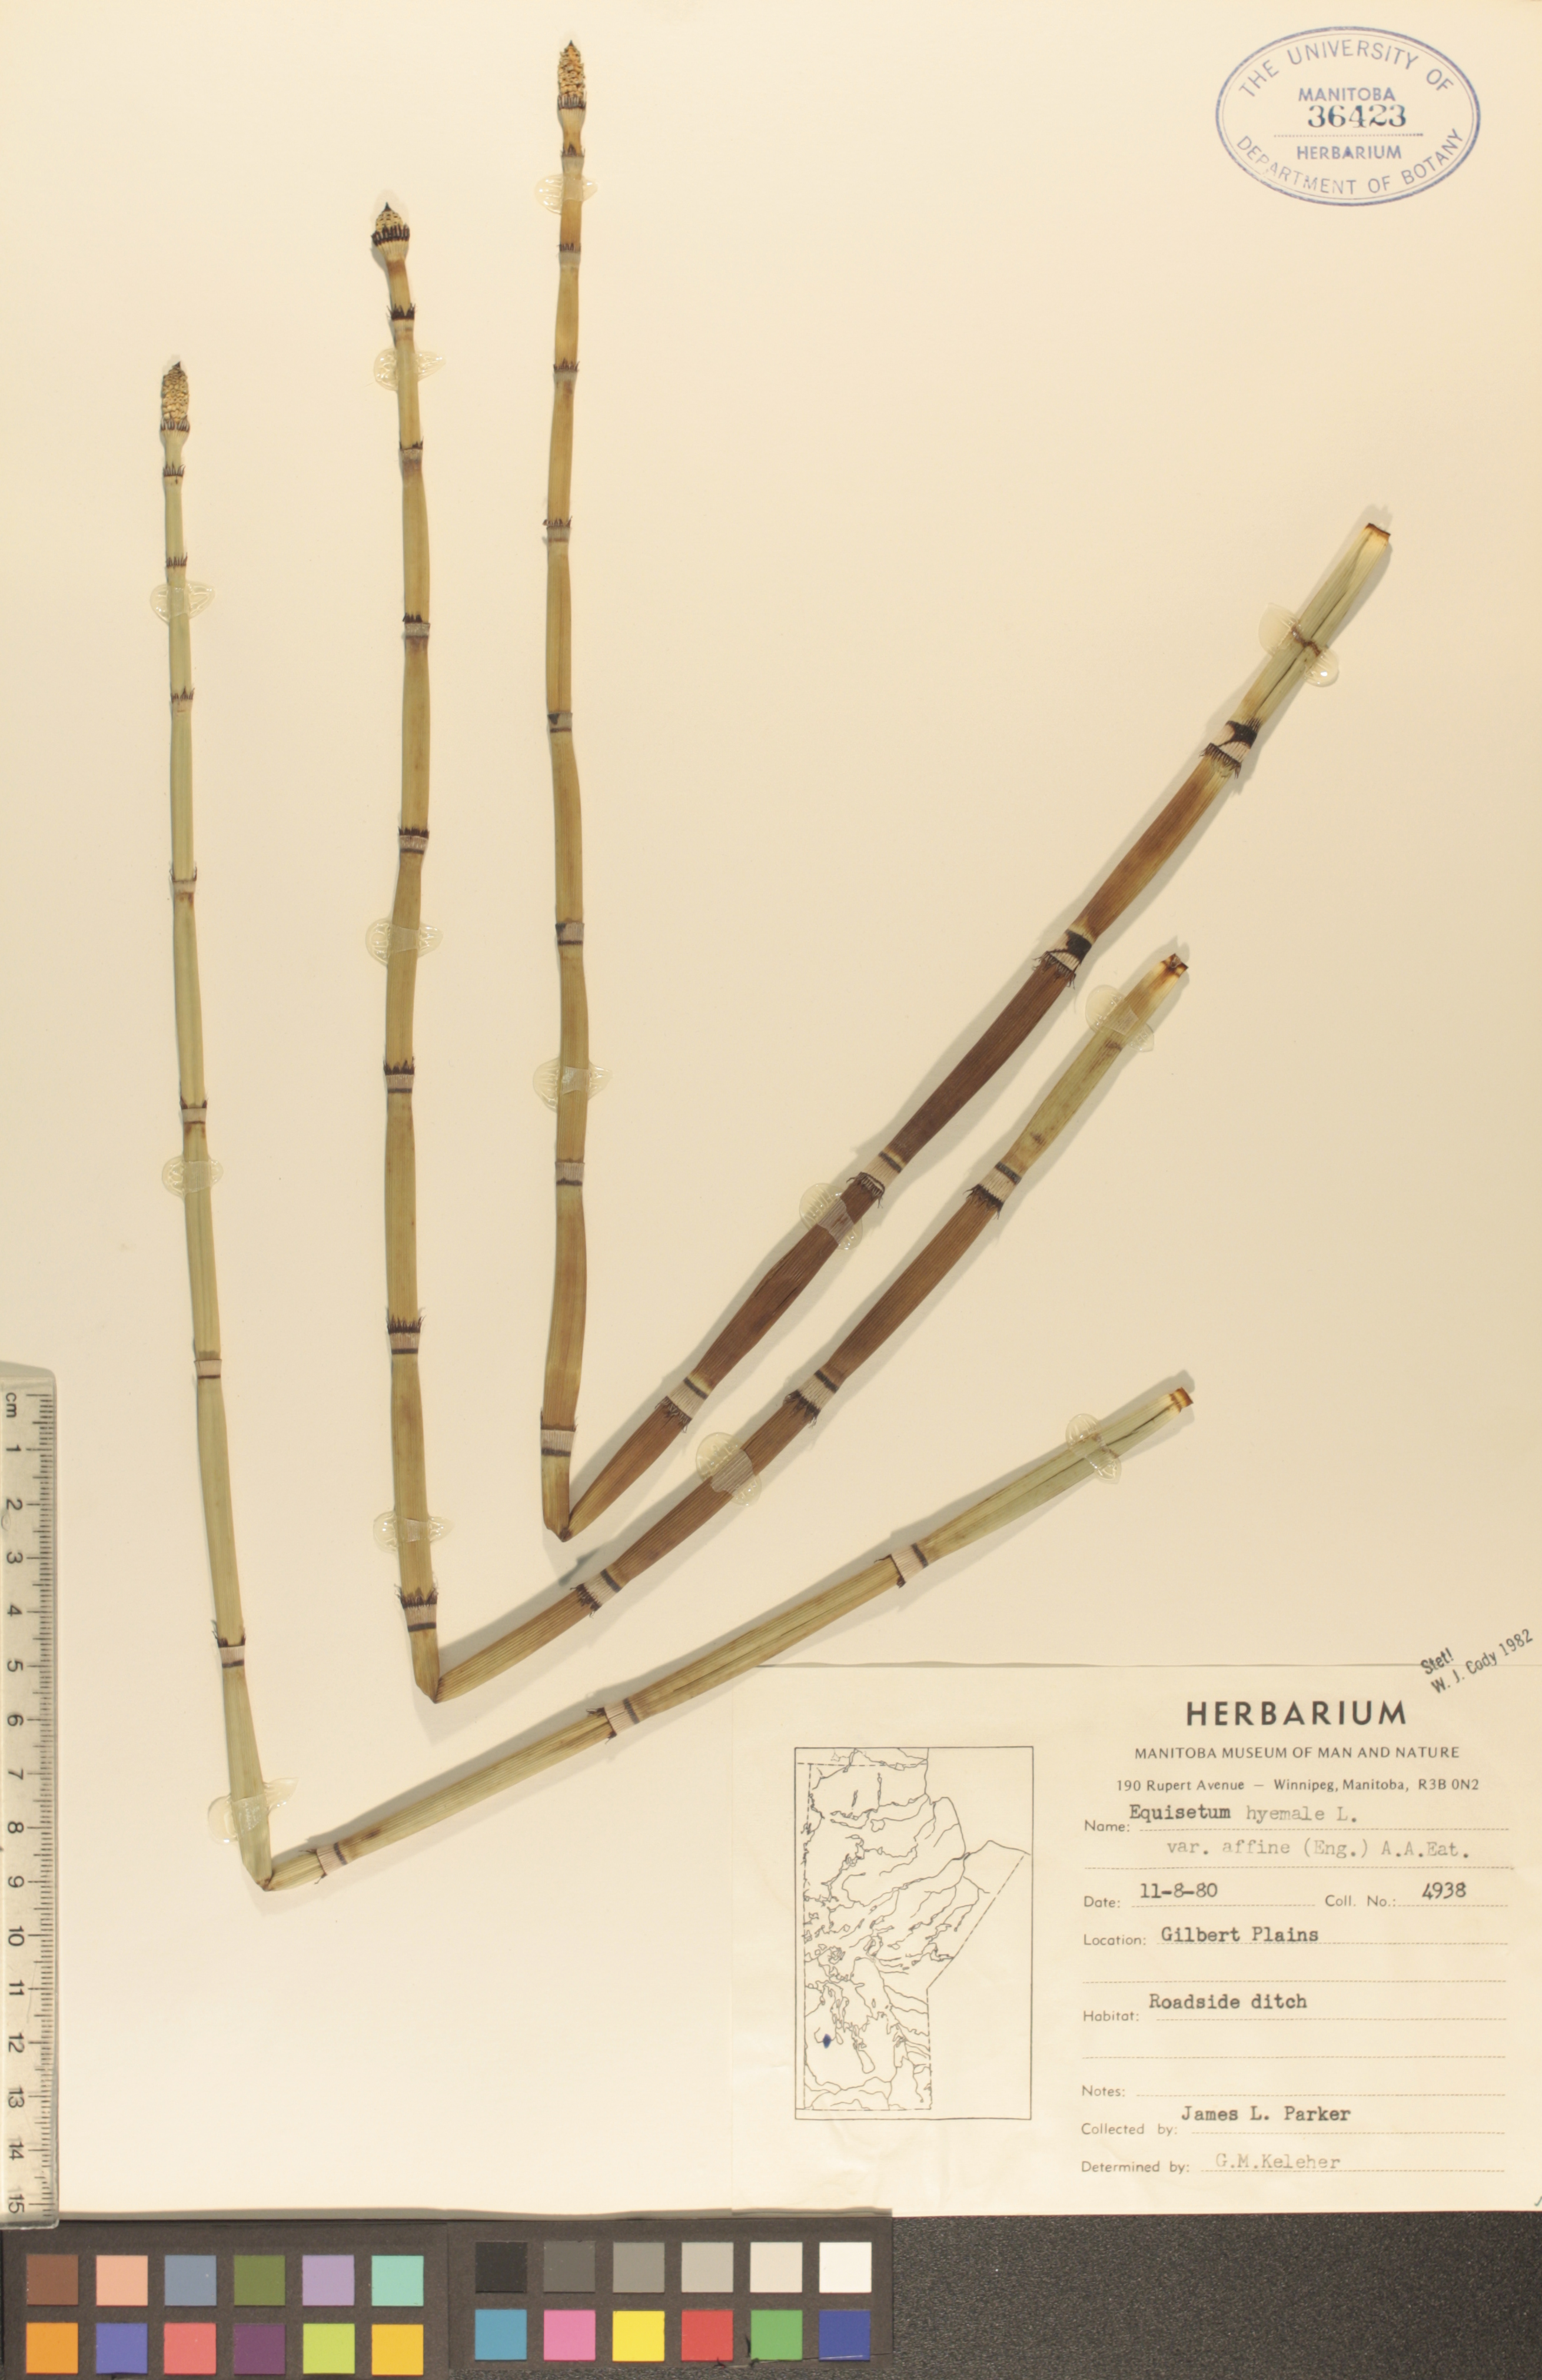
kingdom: Plantae
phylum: Tracheophyta
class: Polypodiopsida
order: Equisetales
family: Equisetaceae
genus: Equisetum
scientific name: Equisetum hyemale
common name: Rough horsetail
